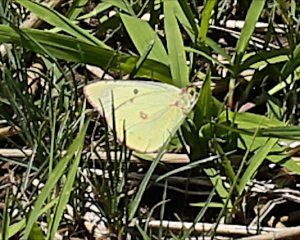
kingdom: Animalia
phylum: Arthropoda
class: Insecta
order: Lepidoptera
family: Pieridae
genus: Colias
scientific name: Colias philodice
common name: Clouded Sulphur
